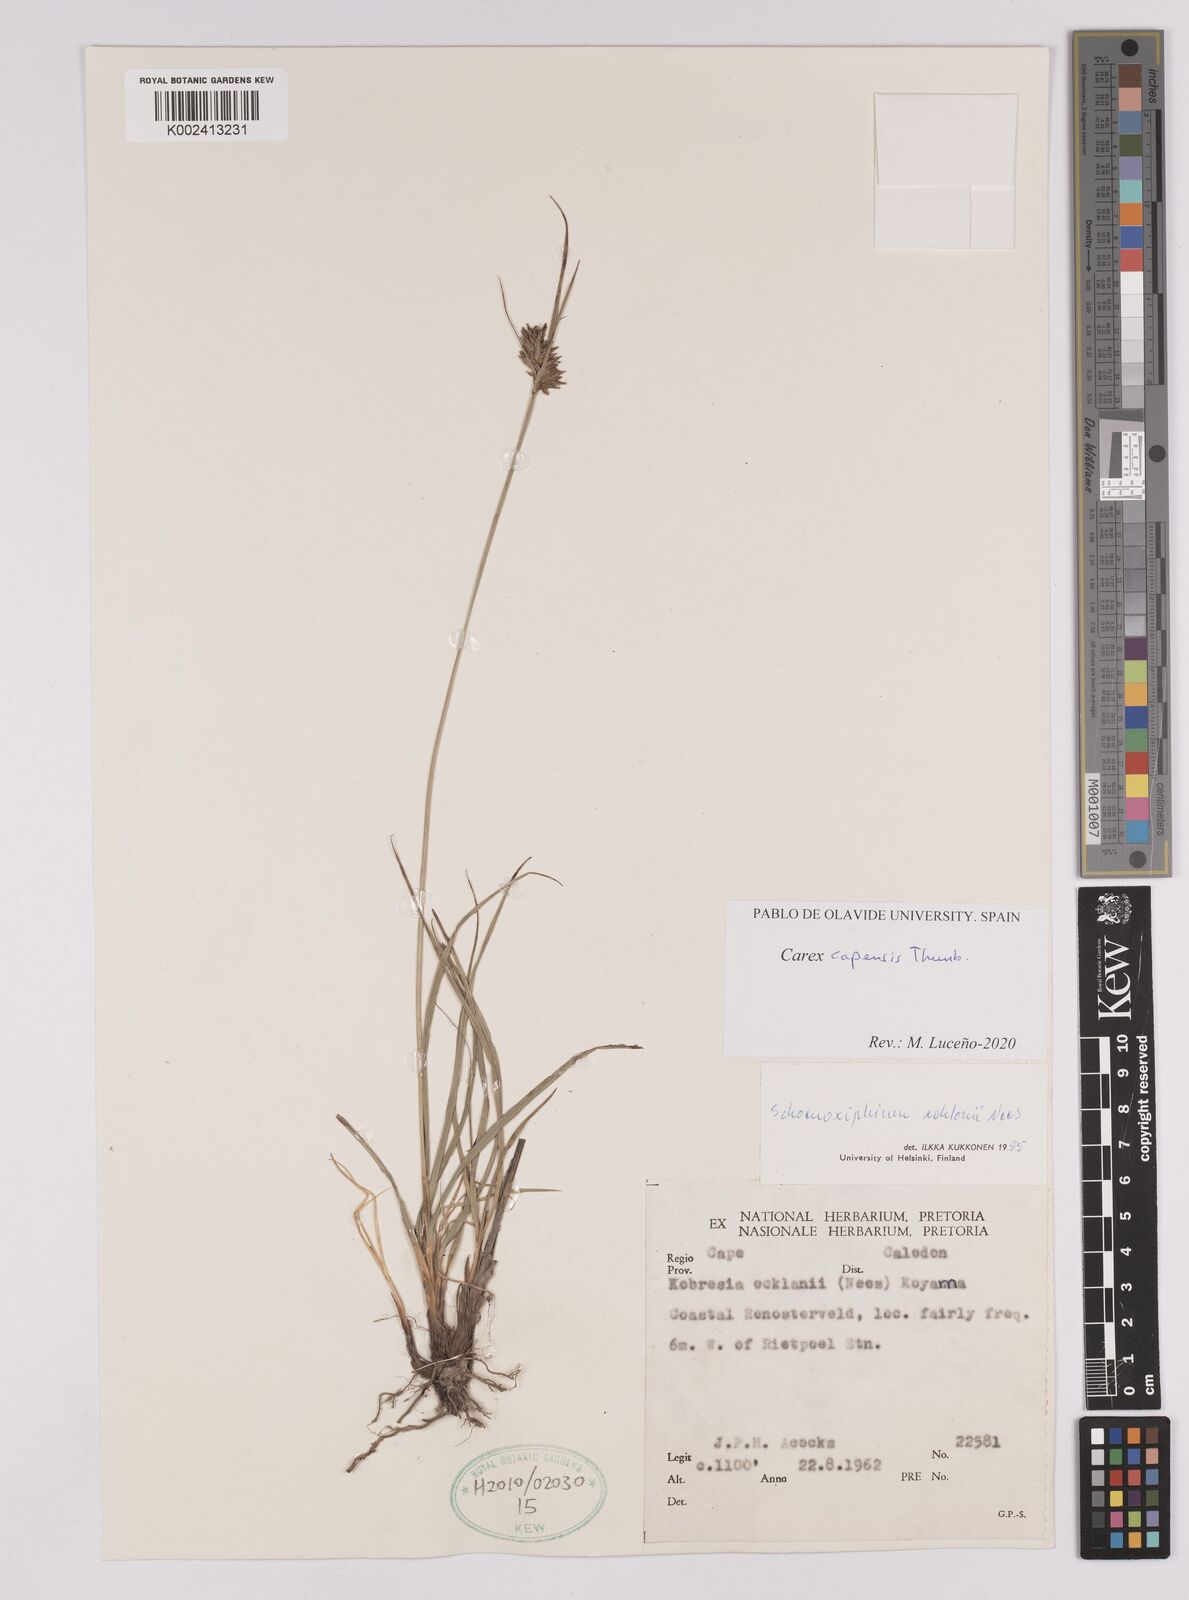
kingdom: Plantae
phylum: Tracheophyta
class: Liliopsida
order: Poales
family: Cyperaceae
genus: Carex
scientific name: Carex capensis
